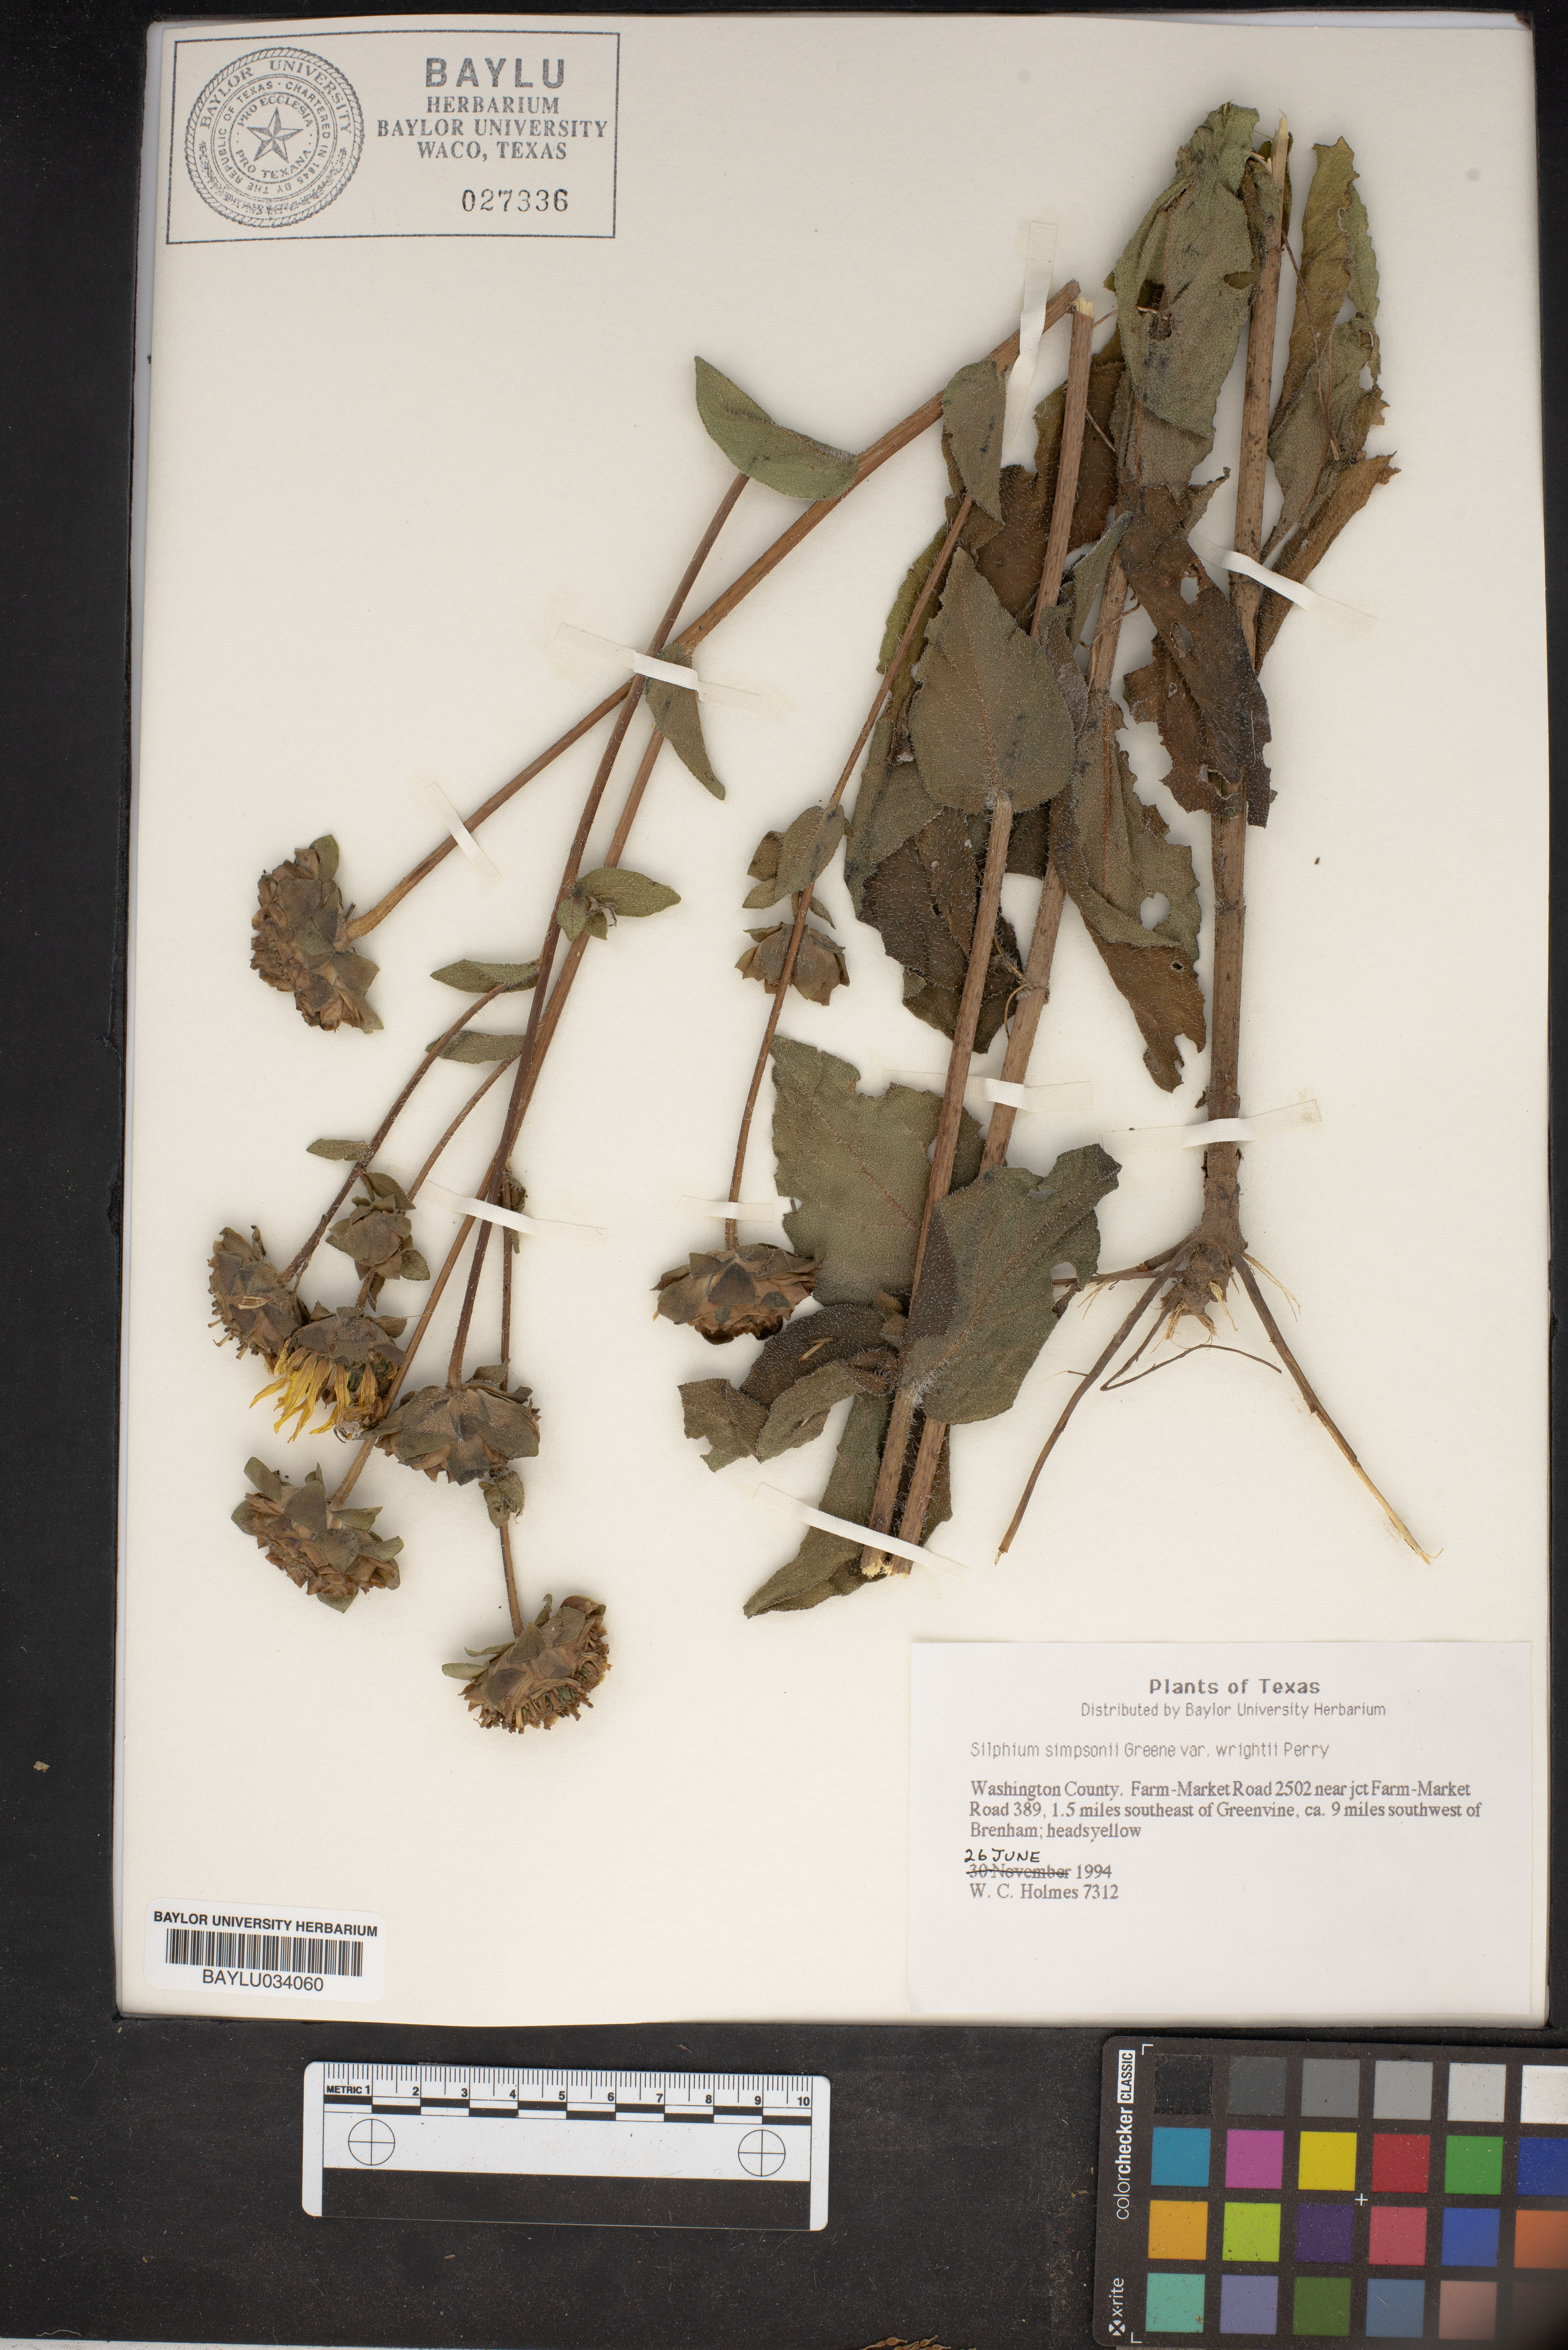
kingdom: Plantae
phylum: Tracheophyta
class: Magnoliopsida
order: Asterales
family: Asteraceae
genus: Silphium
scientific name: Silphium radula
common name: Roughleaf rosinweed
